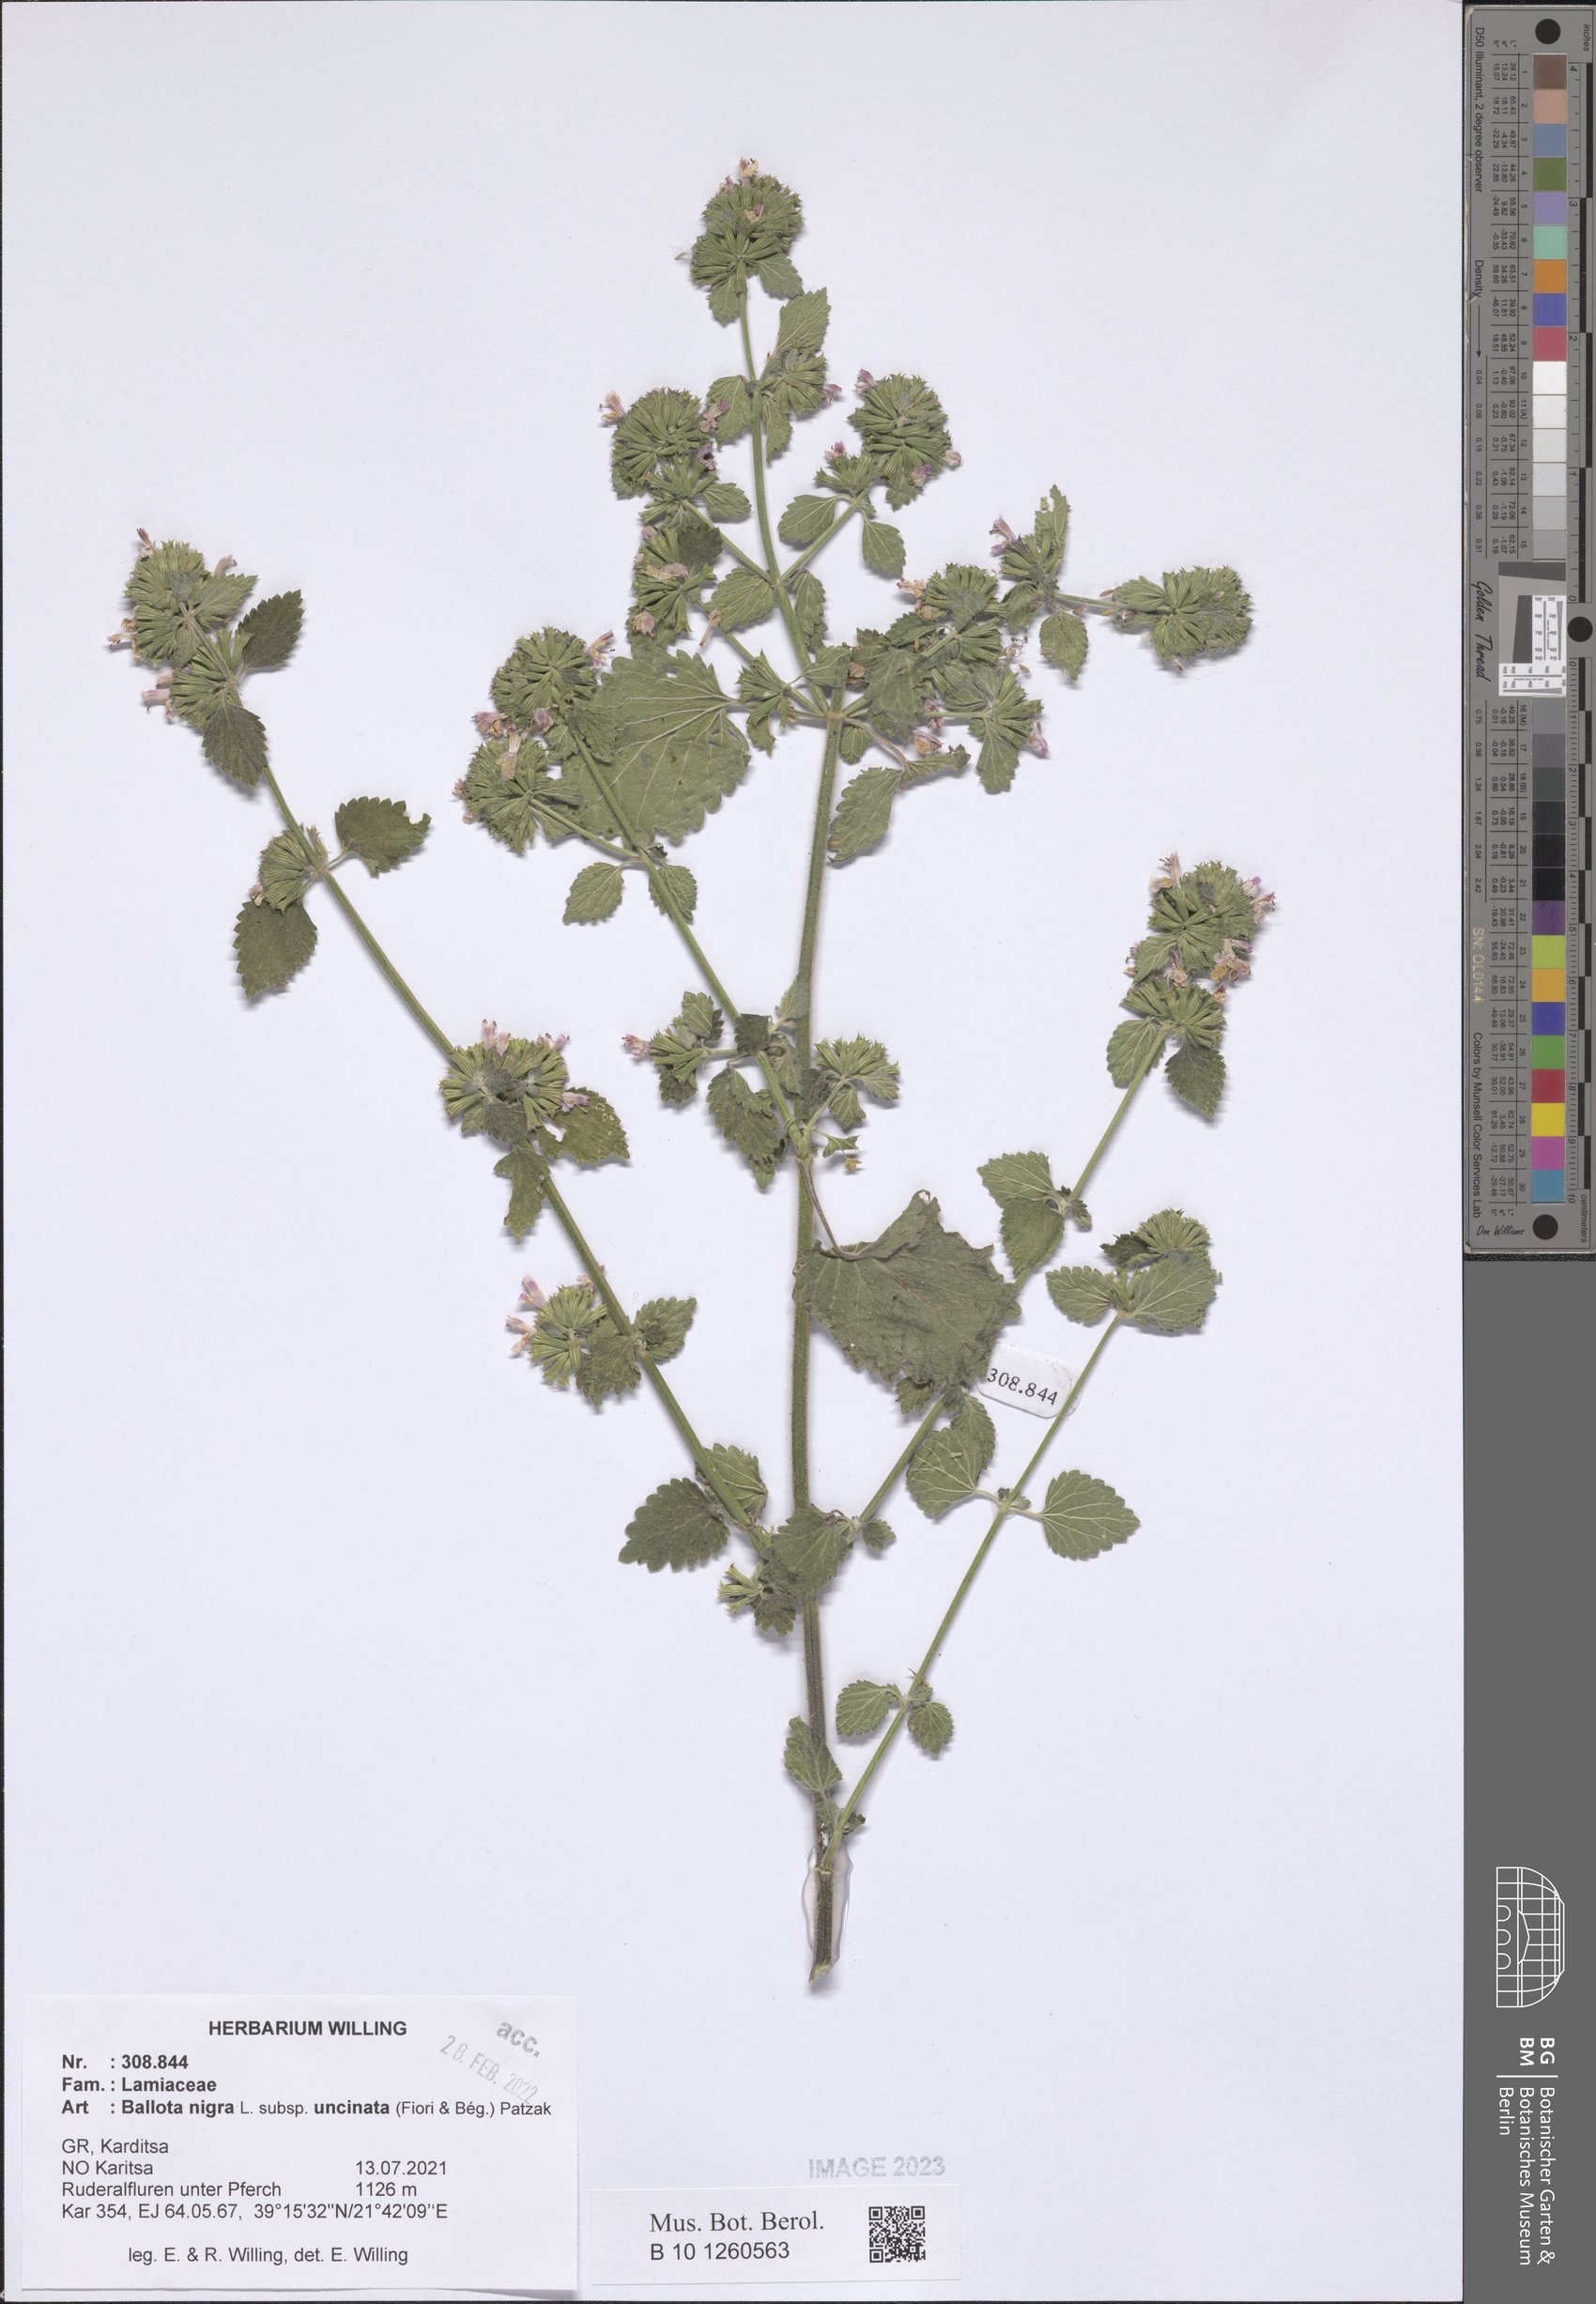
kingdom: Plantae
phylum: Tracheophyta
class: Magnoliopsida
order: Lamiales
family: Lamiaceae
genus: Ballota
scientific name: Ballota nigra
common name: Black horehound
